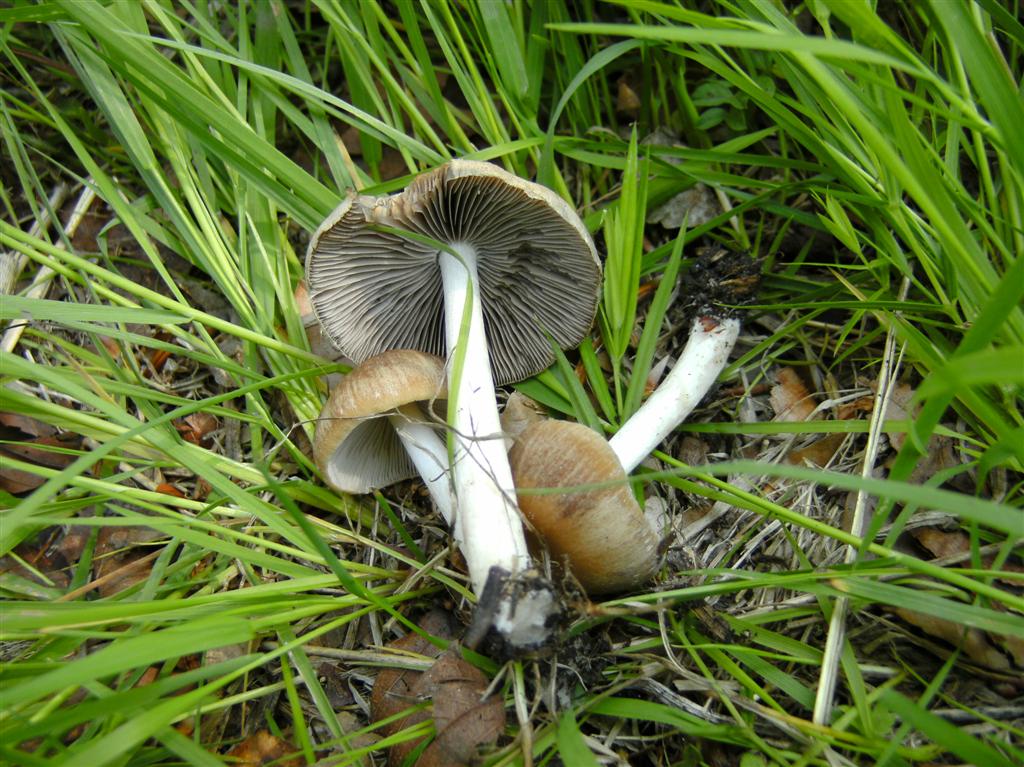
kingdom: Fungi
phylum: Basidiomycota
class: Agaricomycetes
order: Agaricales
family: Psathyrellaceae
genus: Psathyrella
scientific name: Psathyrella spadiceogrisea
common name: gråbrun mørkhat
